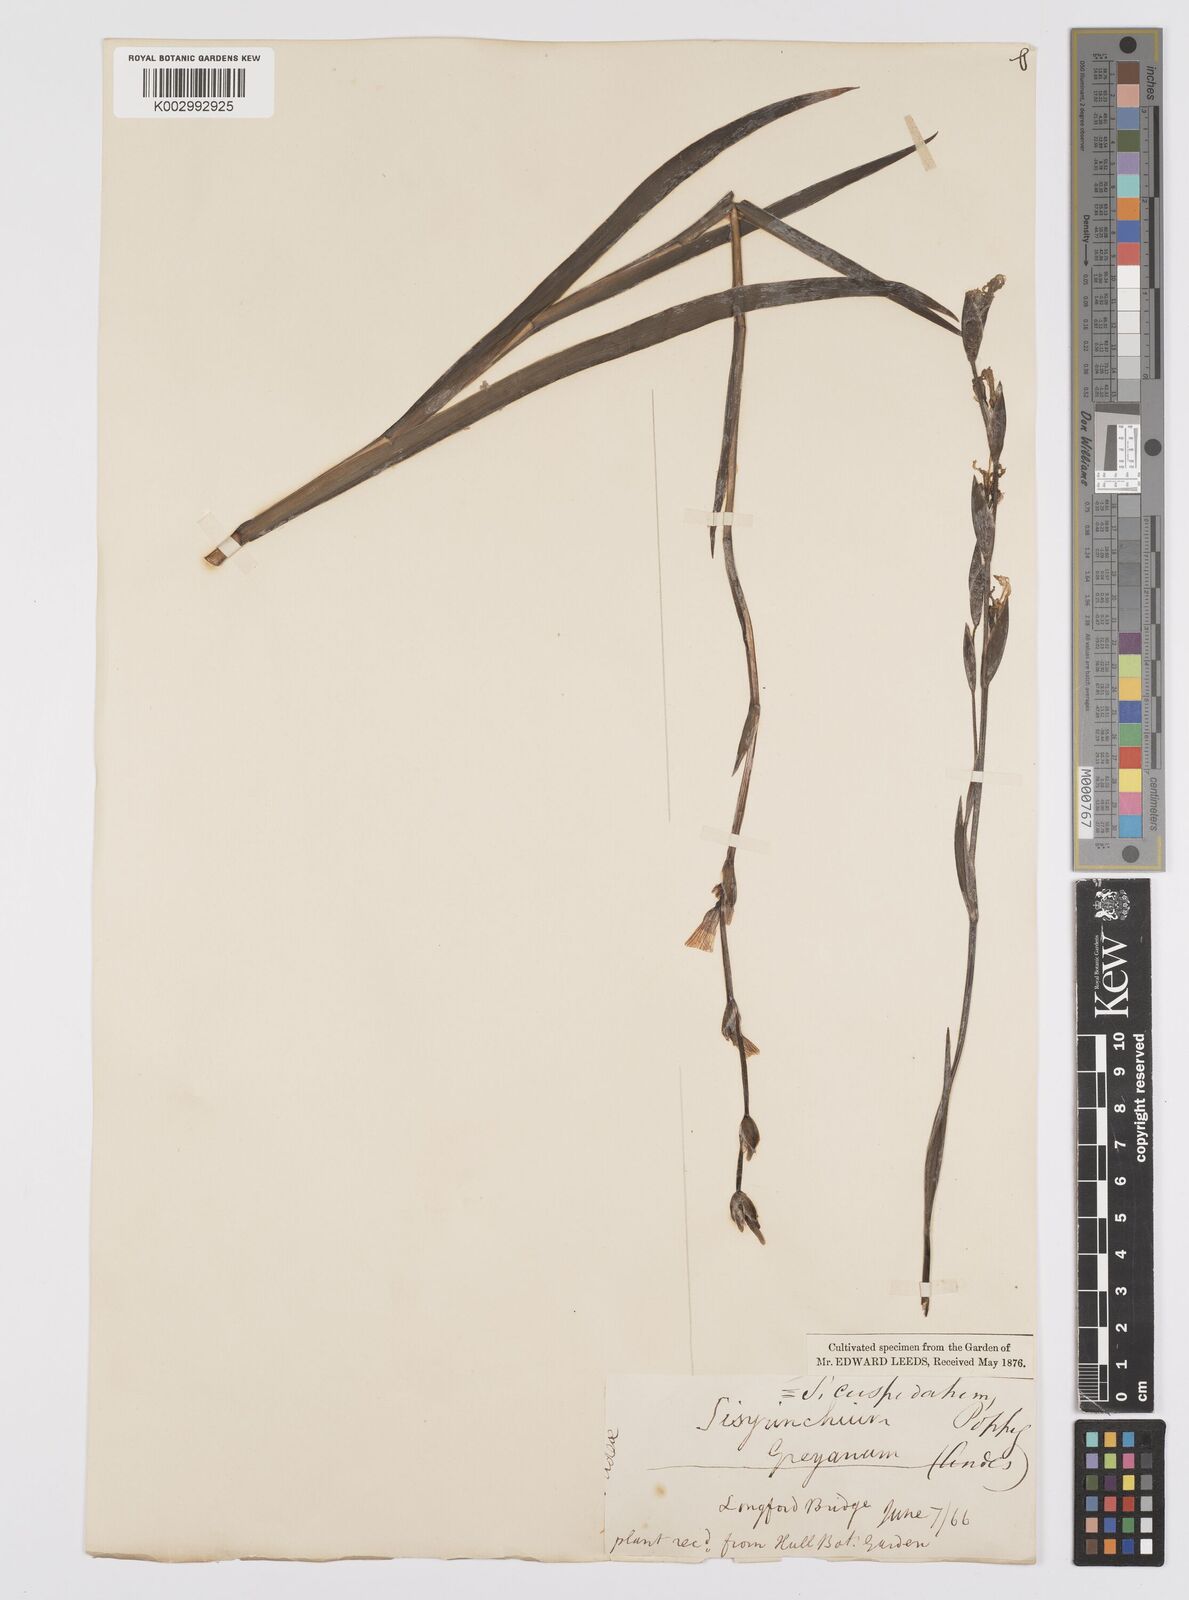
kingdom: Plantae
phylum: Tracheophyta
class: Liliopsida
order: Asparagales
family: Iridaceae
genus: Sisyrinchium
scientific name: Sisyrinchium cuspidatum
